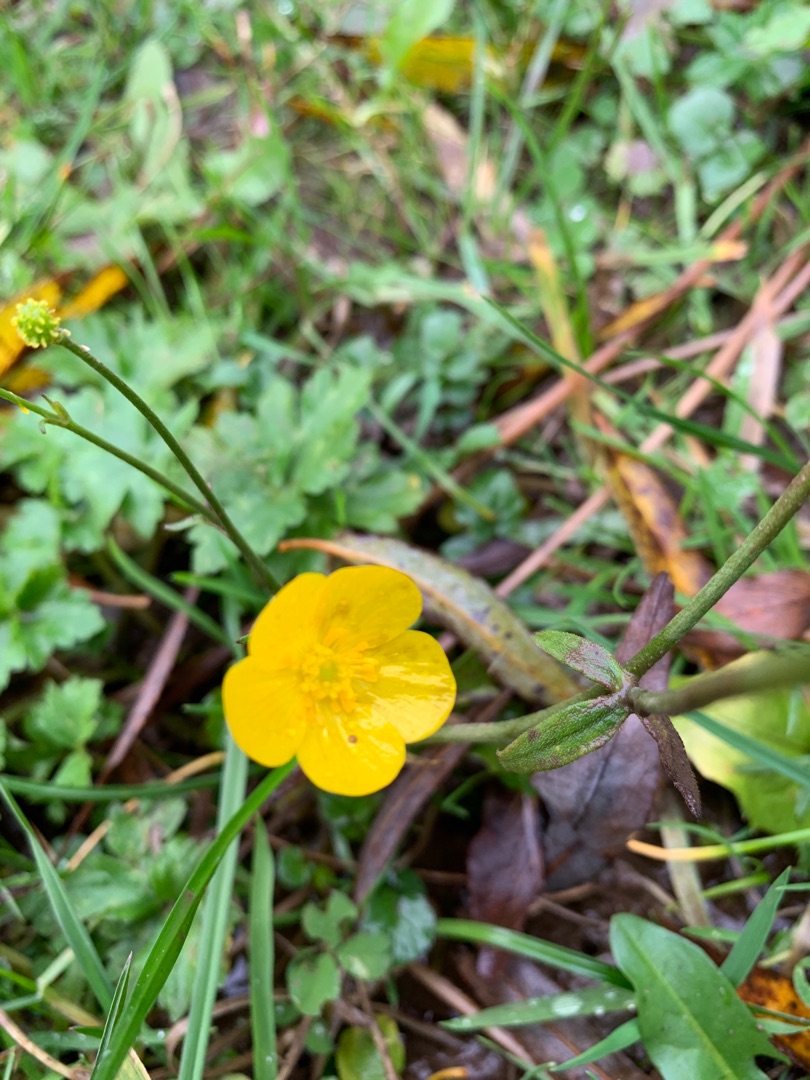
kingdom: Plantae
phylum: Tracheophyta
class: Magnoliopsida
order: Ranunculales
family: Ranunculaceae
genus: Ranunculus
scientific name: Ranunculus acris
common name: Bidende ranunkel
